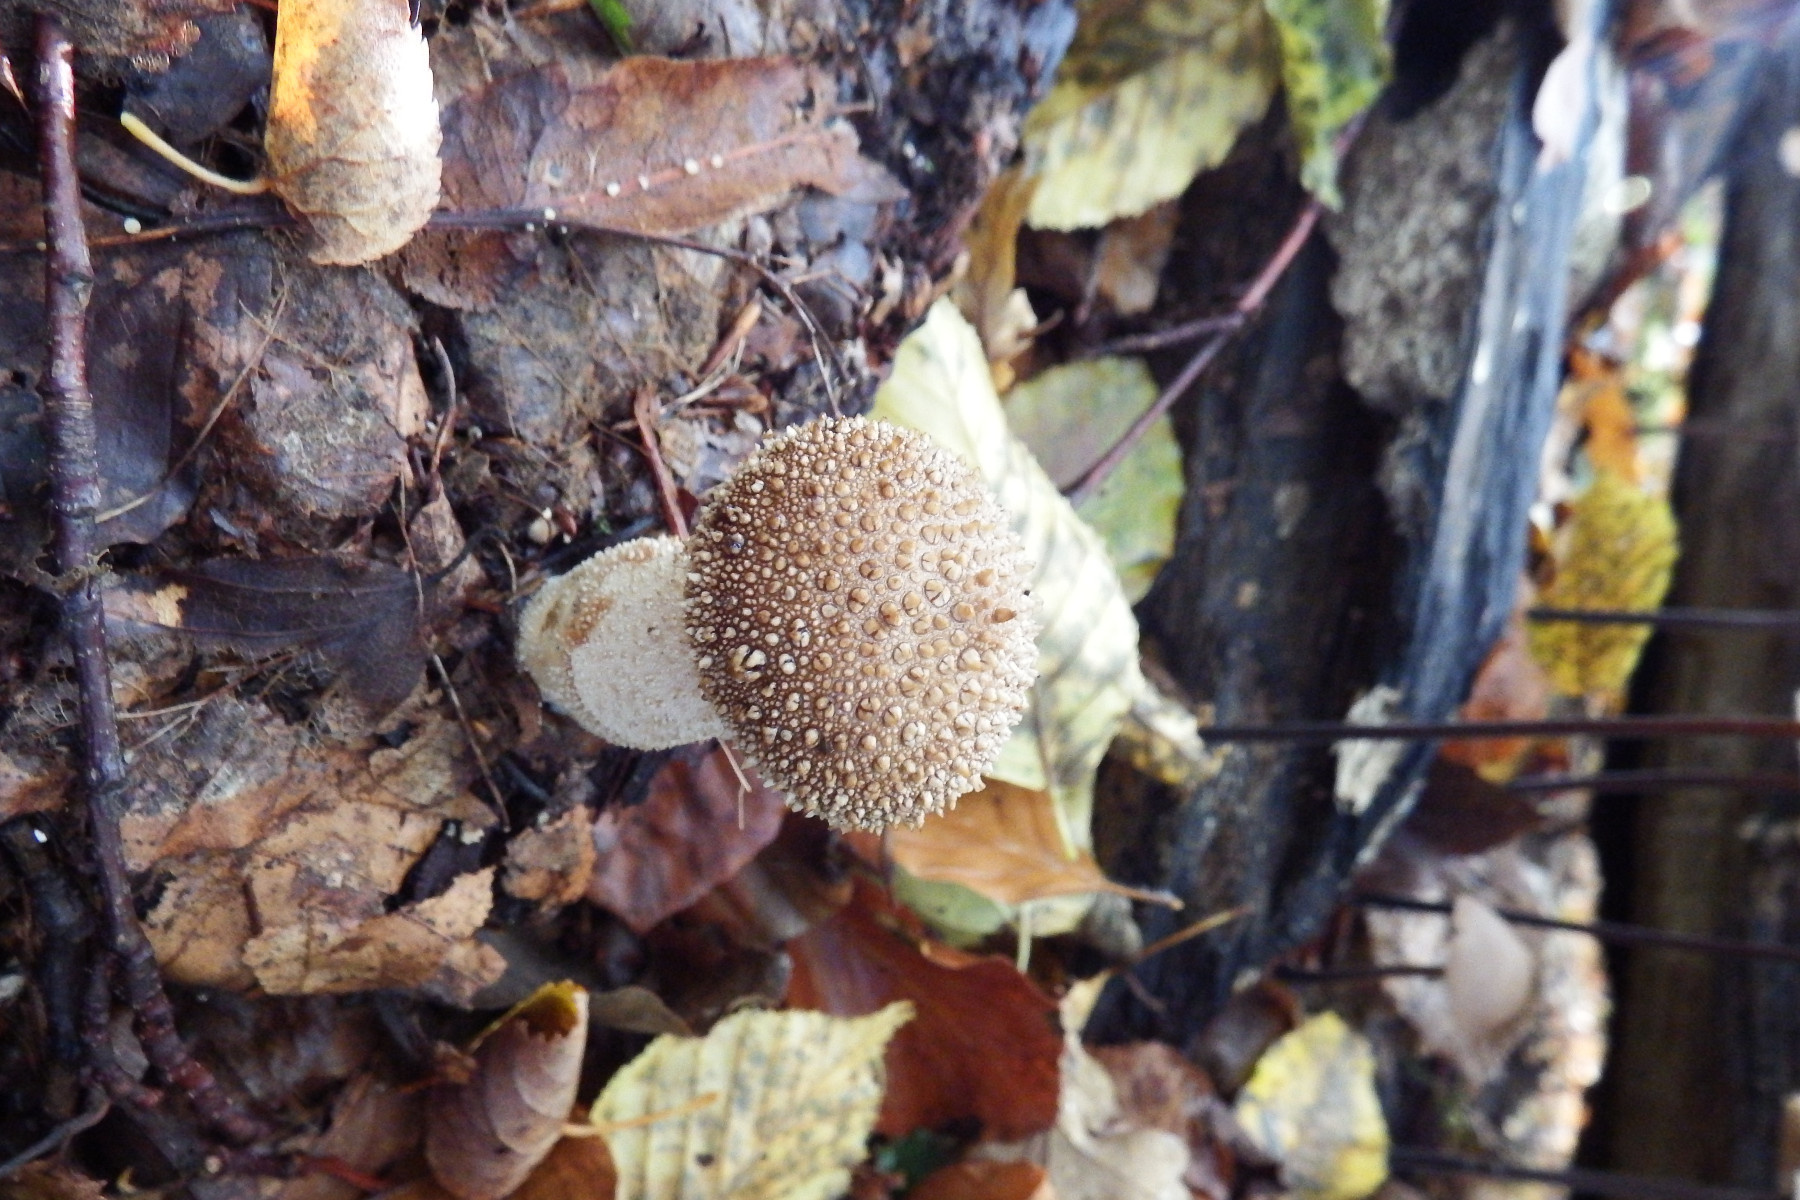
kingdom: Fungi
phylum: Basidiomycota
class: Agaricomycetes
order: Agaricales
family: Lycoperdaceae
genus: Lycoperdon
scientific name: Lycoperdon perlatum
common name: krystal-støvbold
